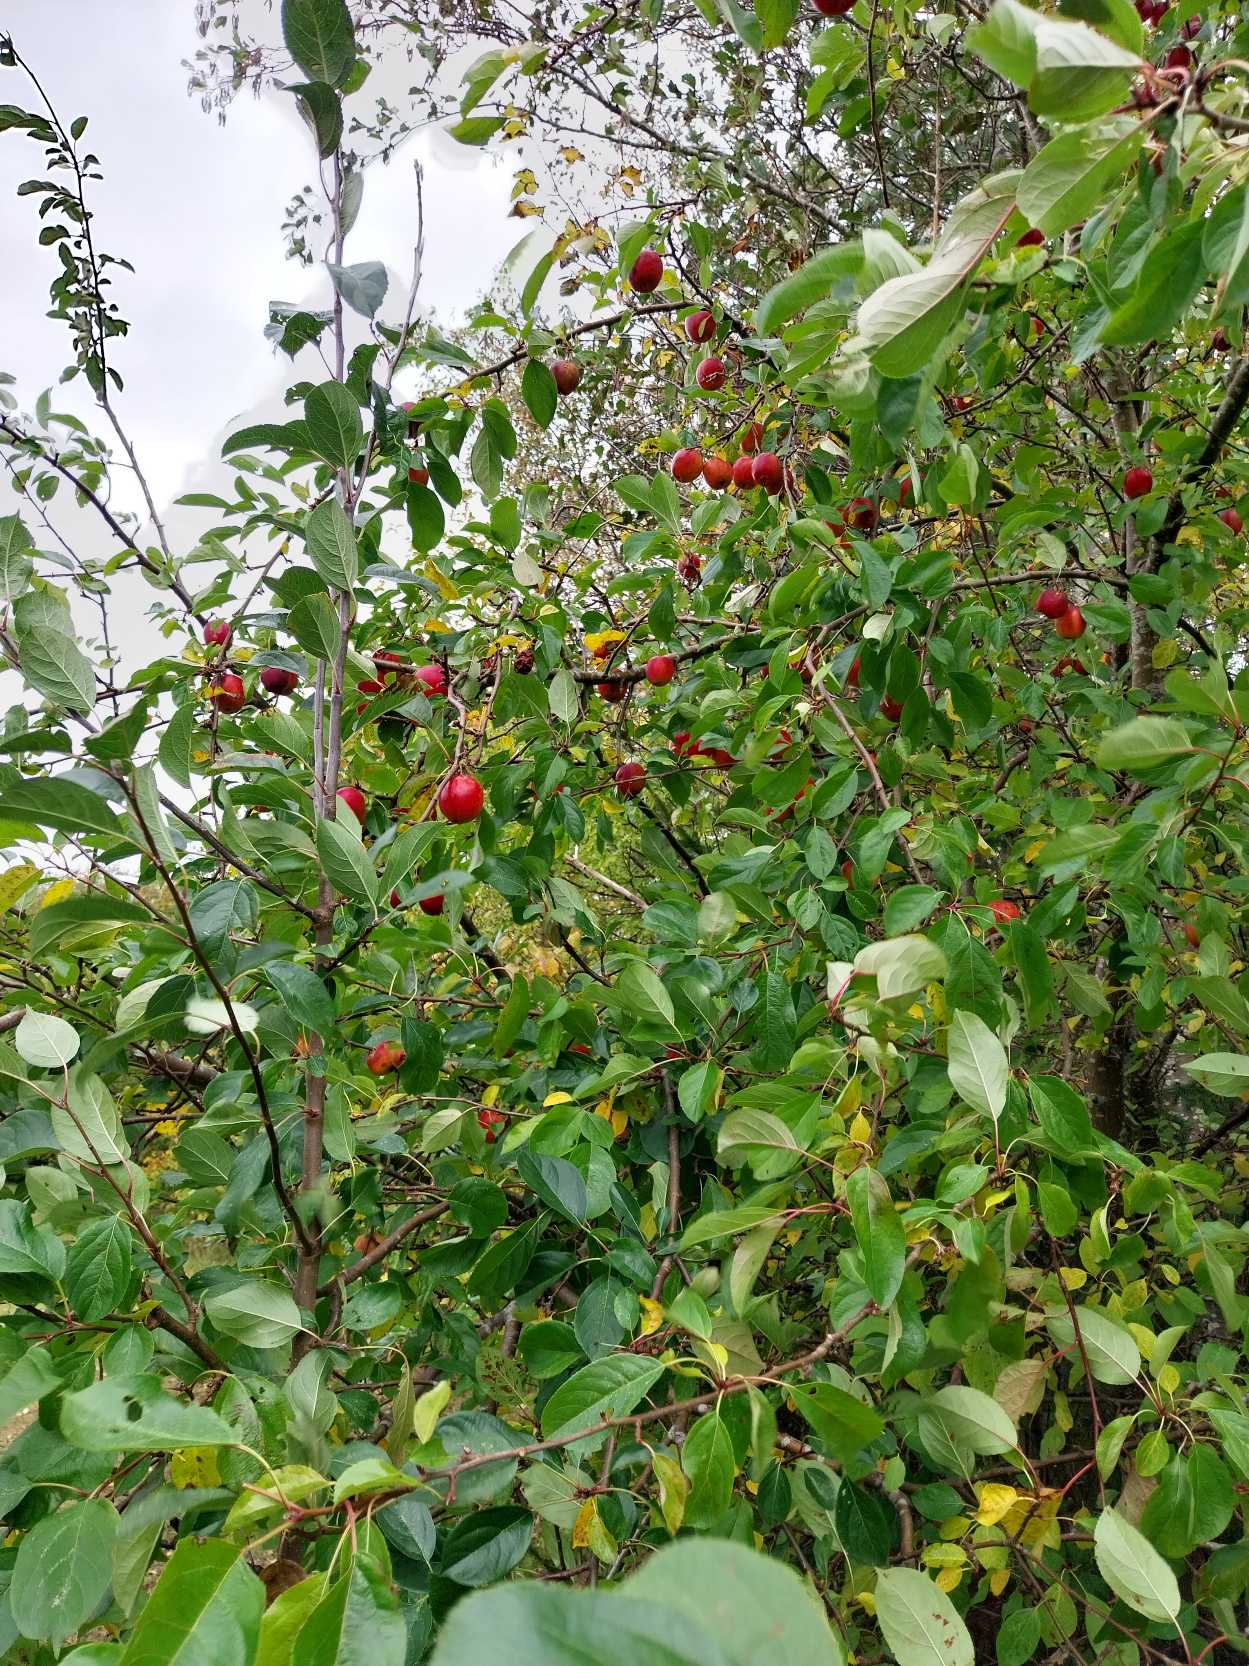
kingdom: Plantae
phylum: Tracheophyta
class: Magnoliopsida
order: Rosales
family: Rosaceae
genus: Prunus
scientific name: Prunus domestica
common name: Blomme
